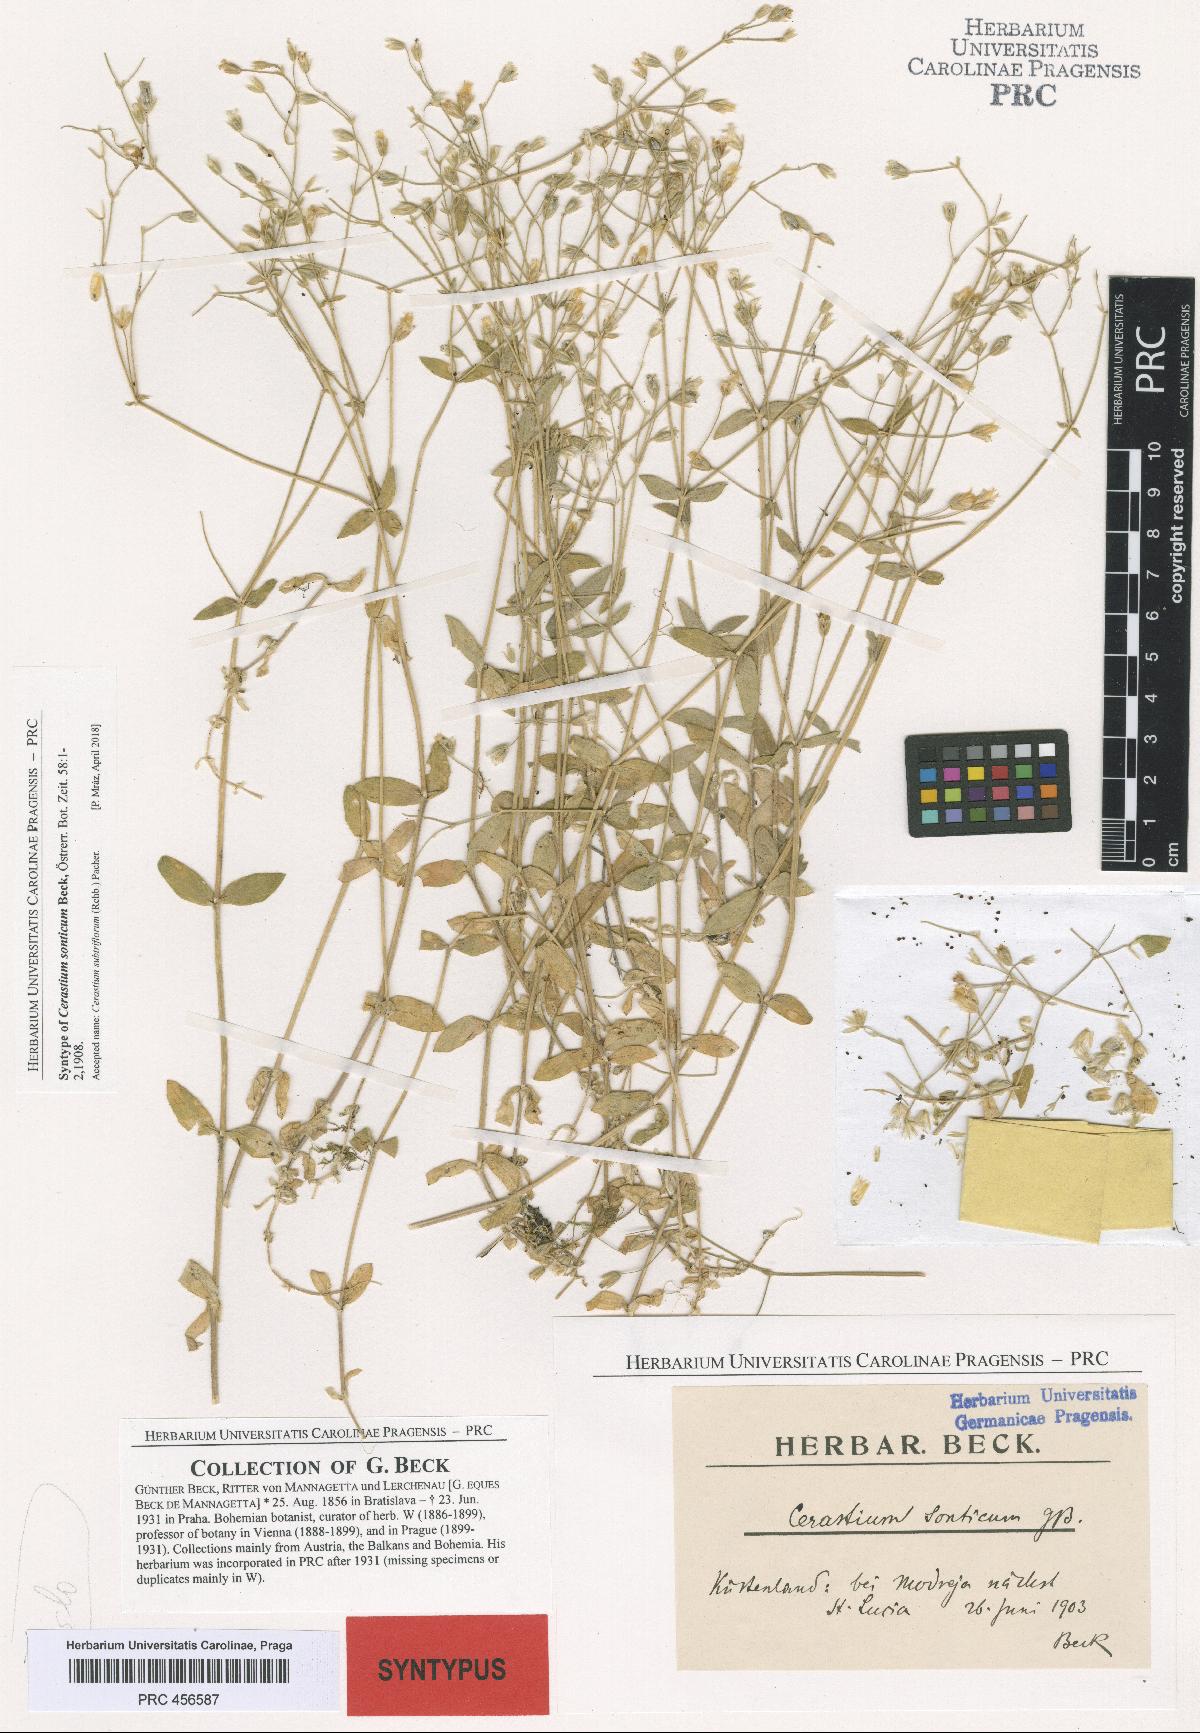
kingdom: Plantae
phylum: Tracheophyta
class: Magnoliopsida
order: Caryophyllales
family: Caryophyllaceae
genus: Cerastium
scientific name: Cerastium subtriflorum
